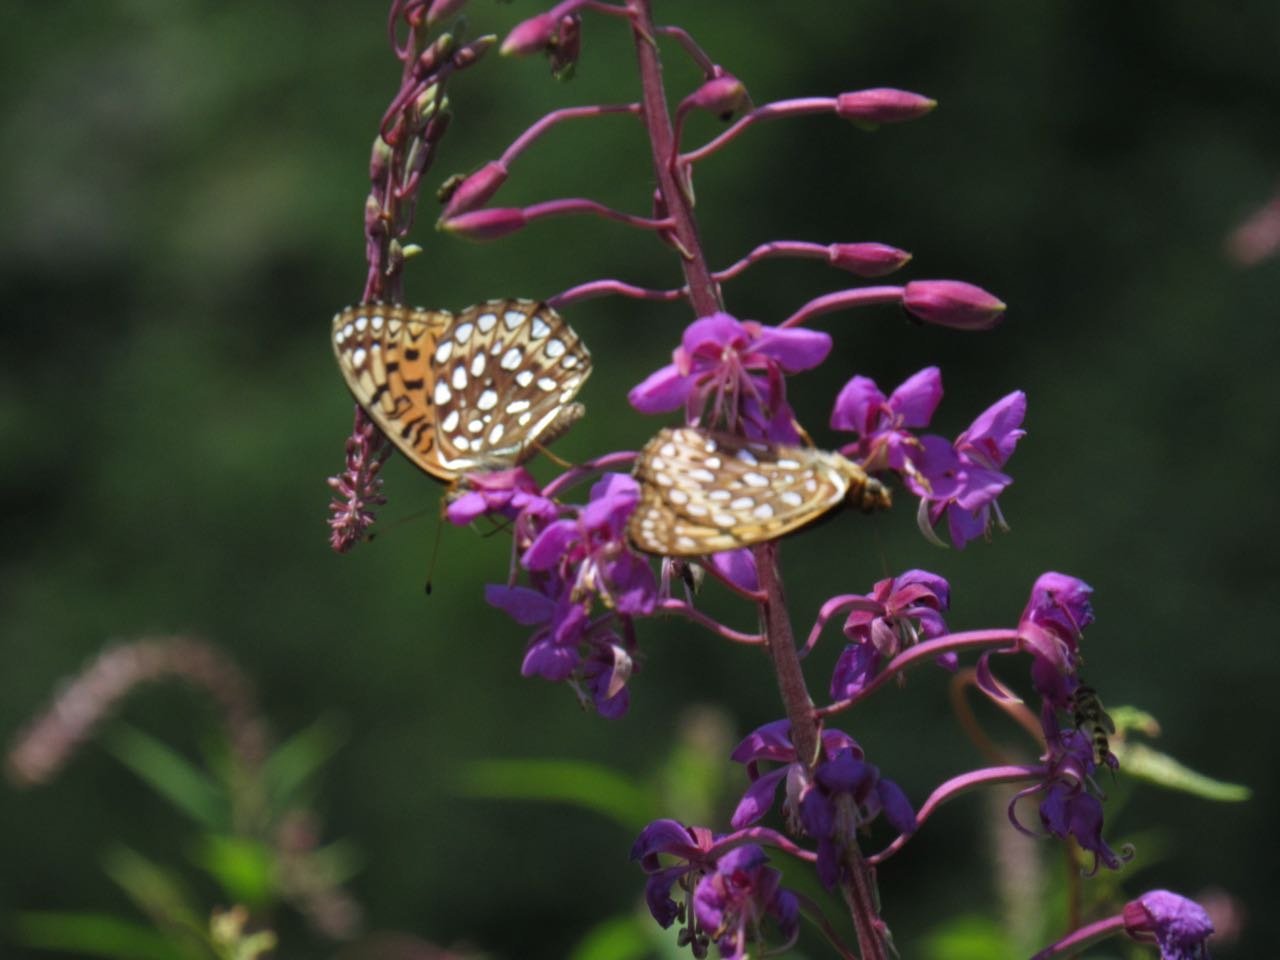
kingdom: Animalia
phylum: Arthropoda
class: Insecta
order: Lepidoptera
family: Nymphalidae
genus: Speyeria
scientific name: Speyeria atlantis
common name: Atlantis Fritillary
